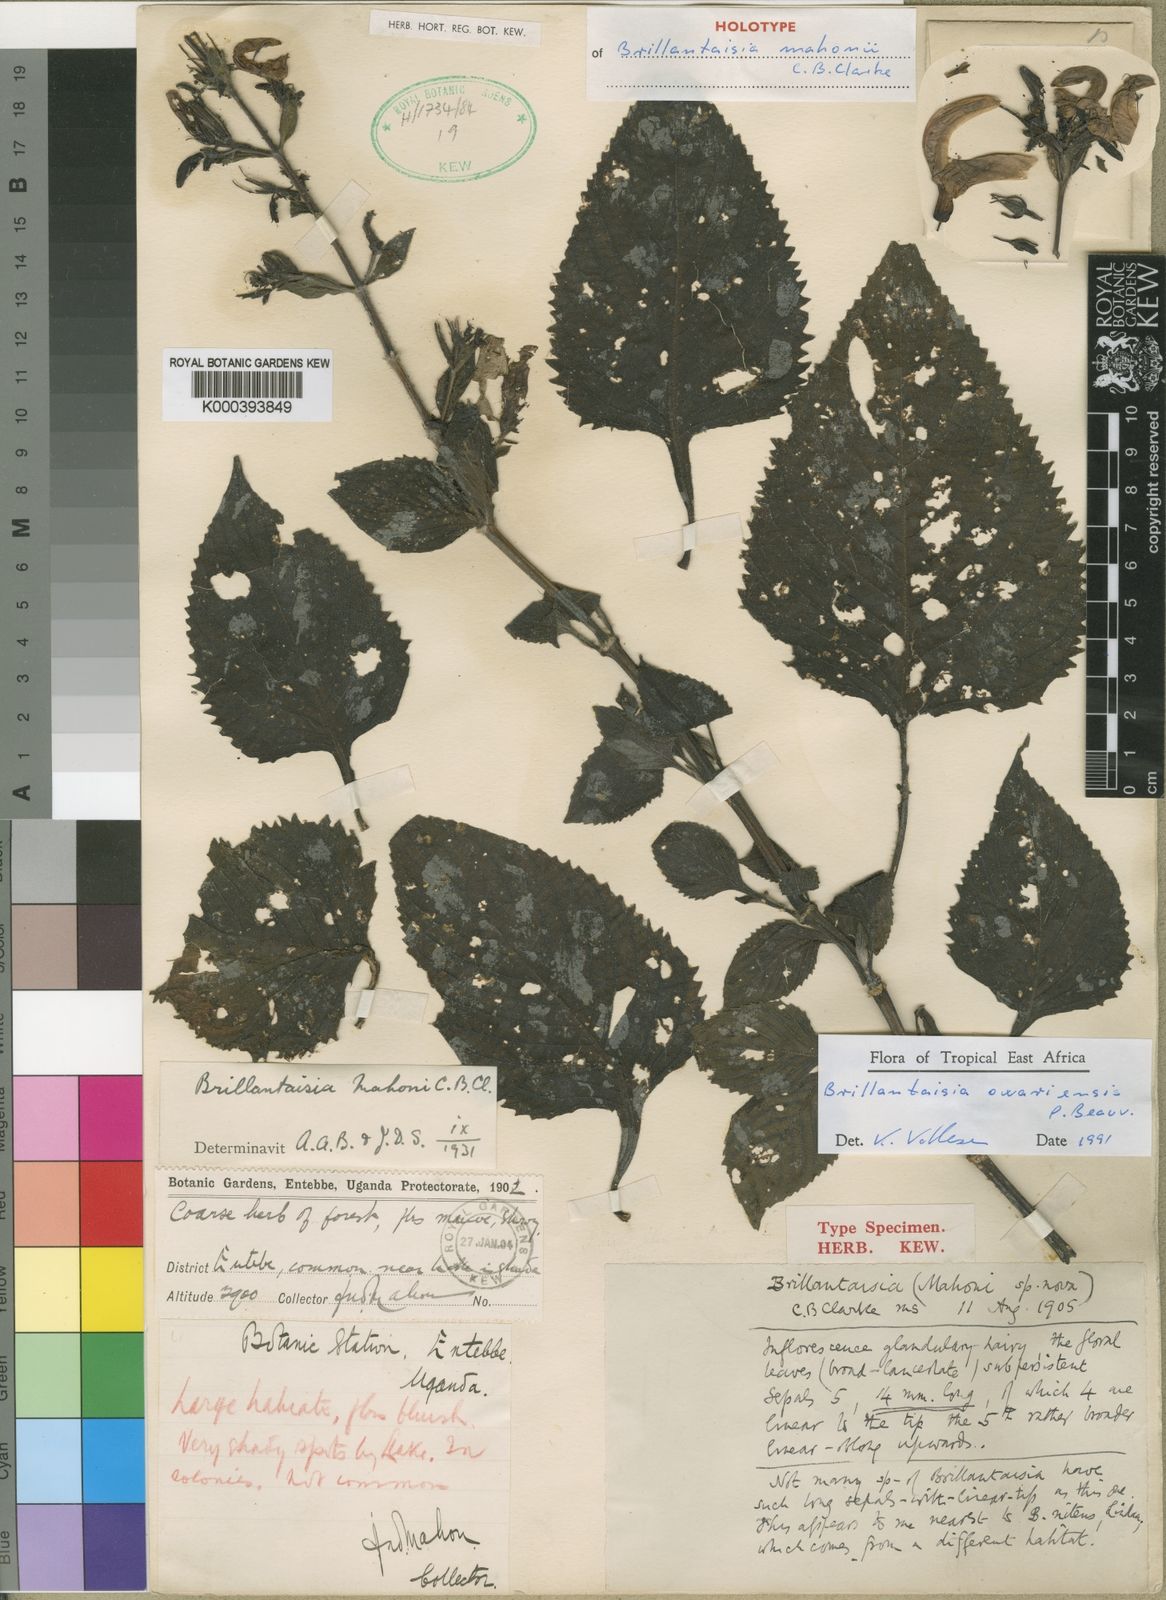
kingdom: Plantae
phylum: Tracheophyta
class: Magnoliopsida
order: Lamiales
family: Acanthaceae
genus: Brillantaisia
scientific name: Brillantaisia owariensis
